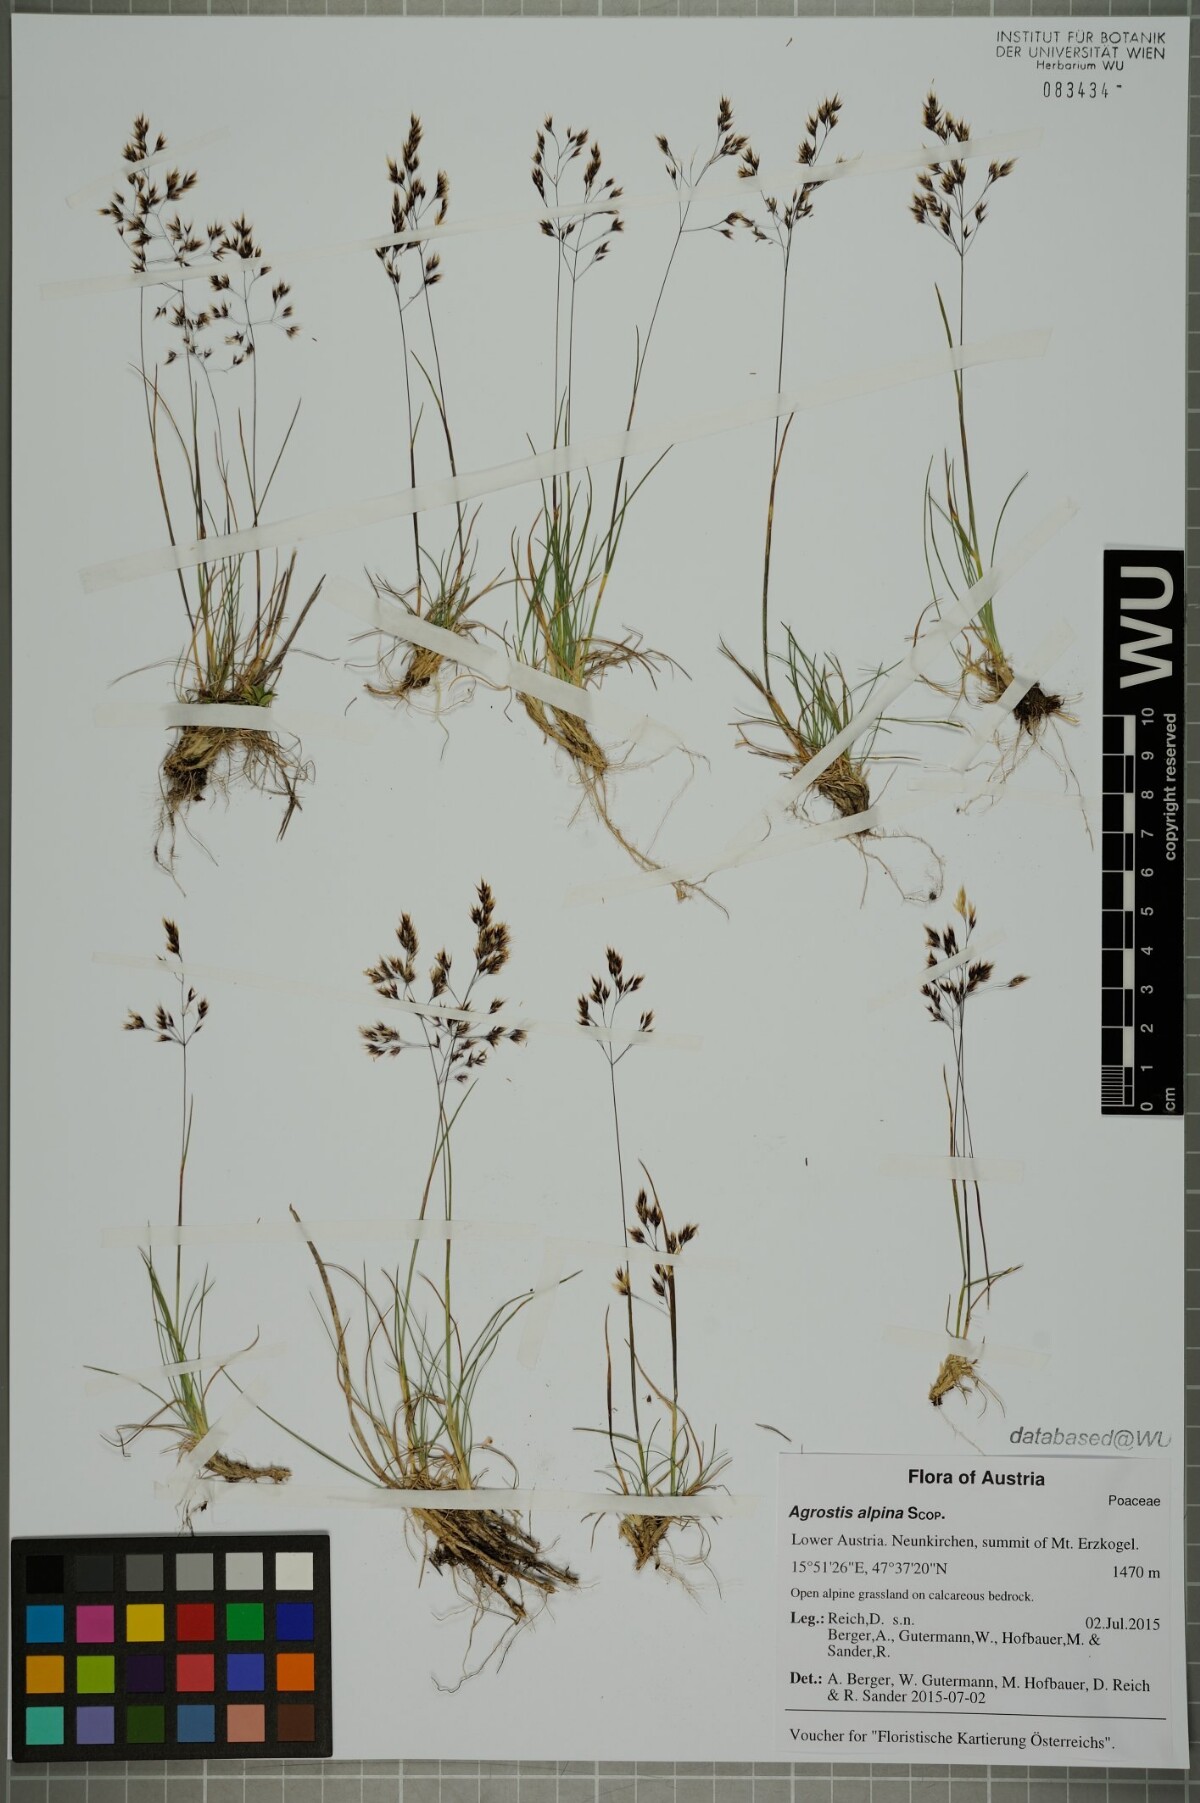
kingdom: Plantae
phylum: Tracheophyta
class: Liliopsida
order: Poales
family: Poaceae
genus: Alpagrostis
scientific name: Alpagrostis alpina
